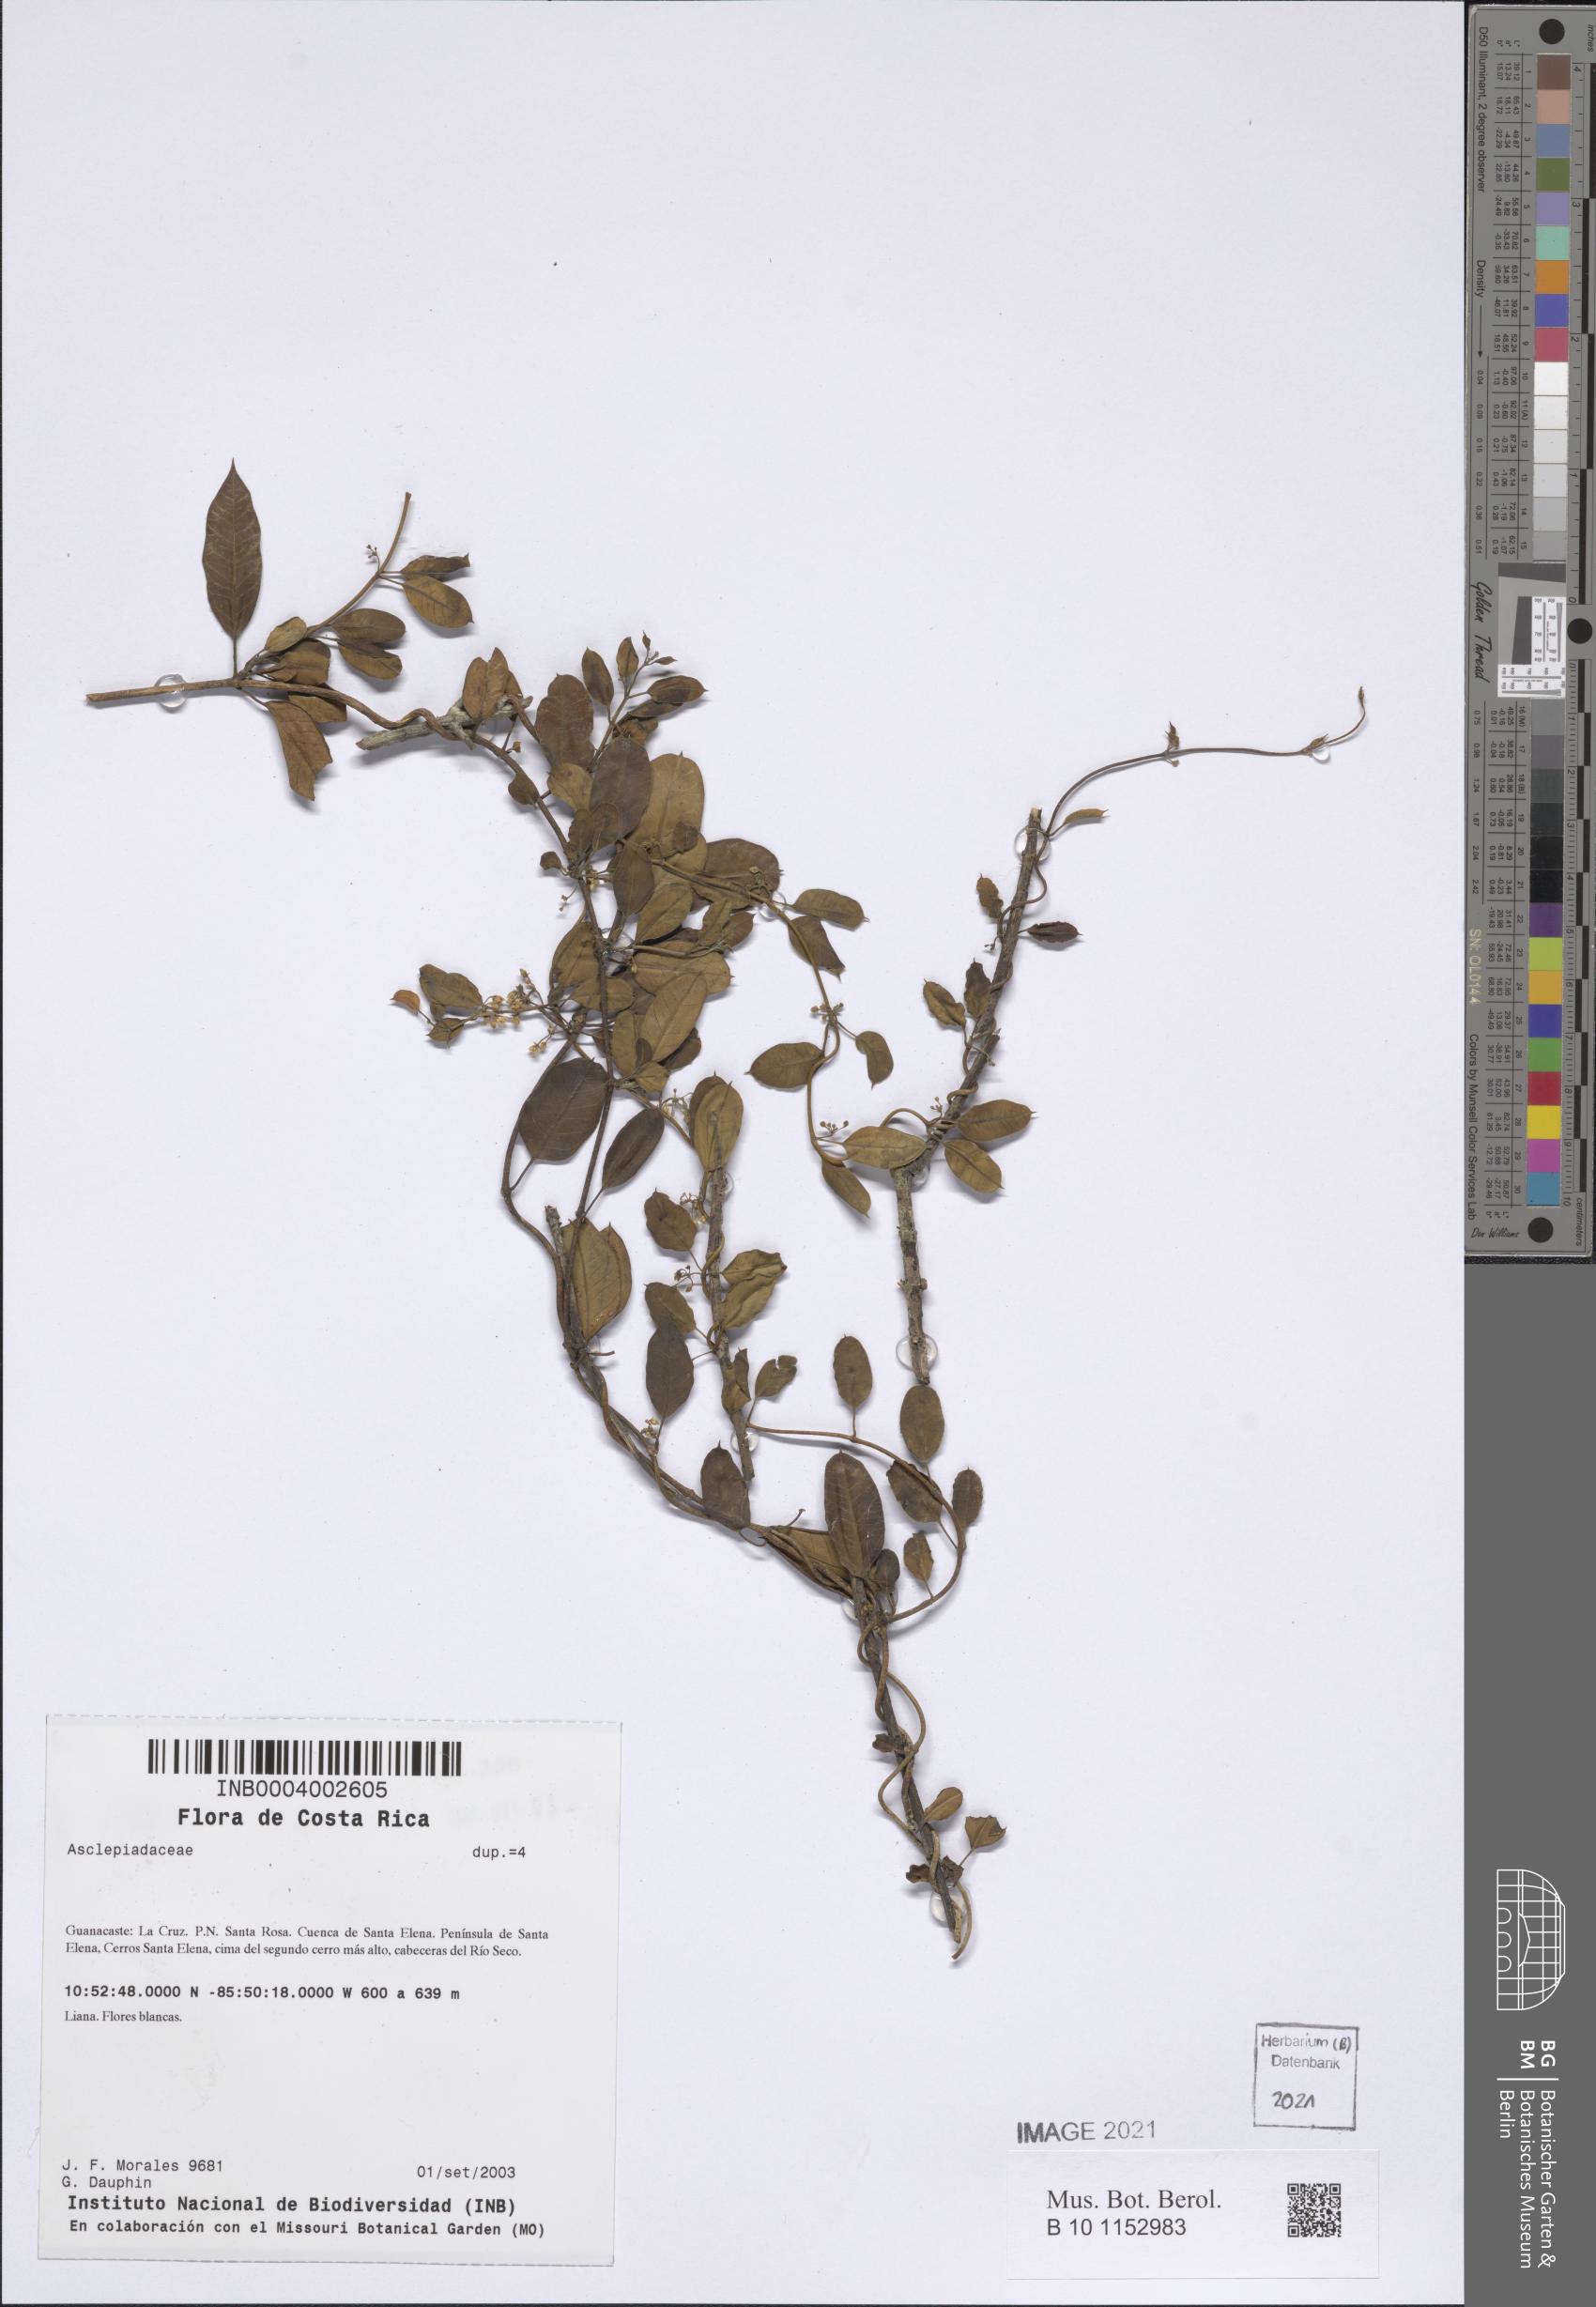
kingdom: Plantae
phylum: Tracheophyta
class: Magnoliopsida
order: Gentianales
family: Apocynaceae
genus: Metastelma
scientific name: Metastelma barbigerum
